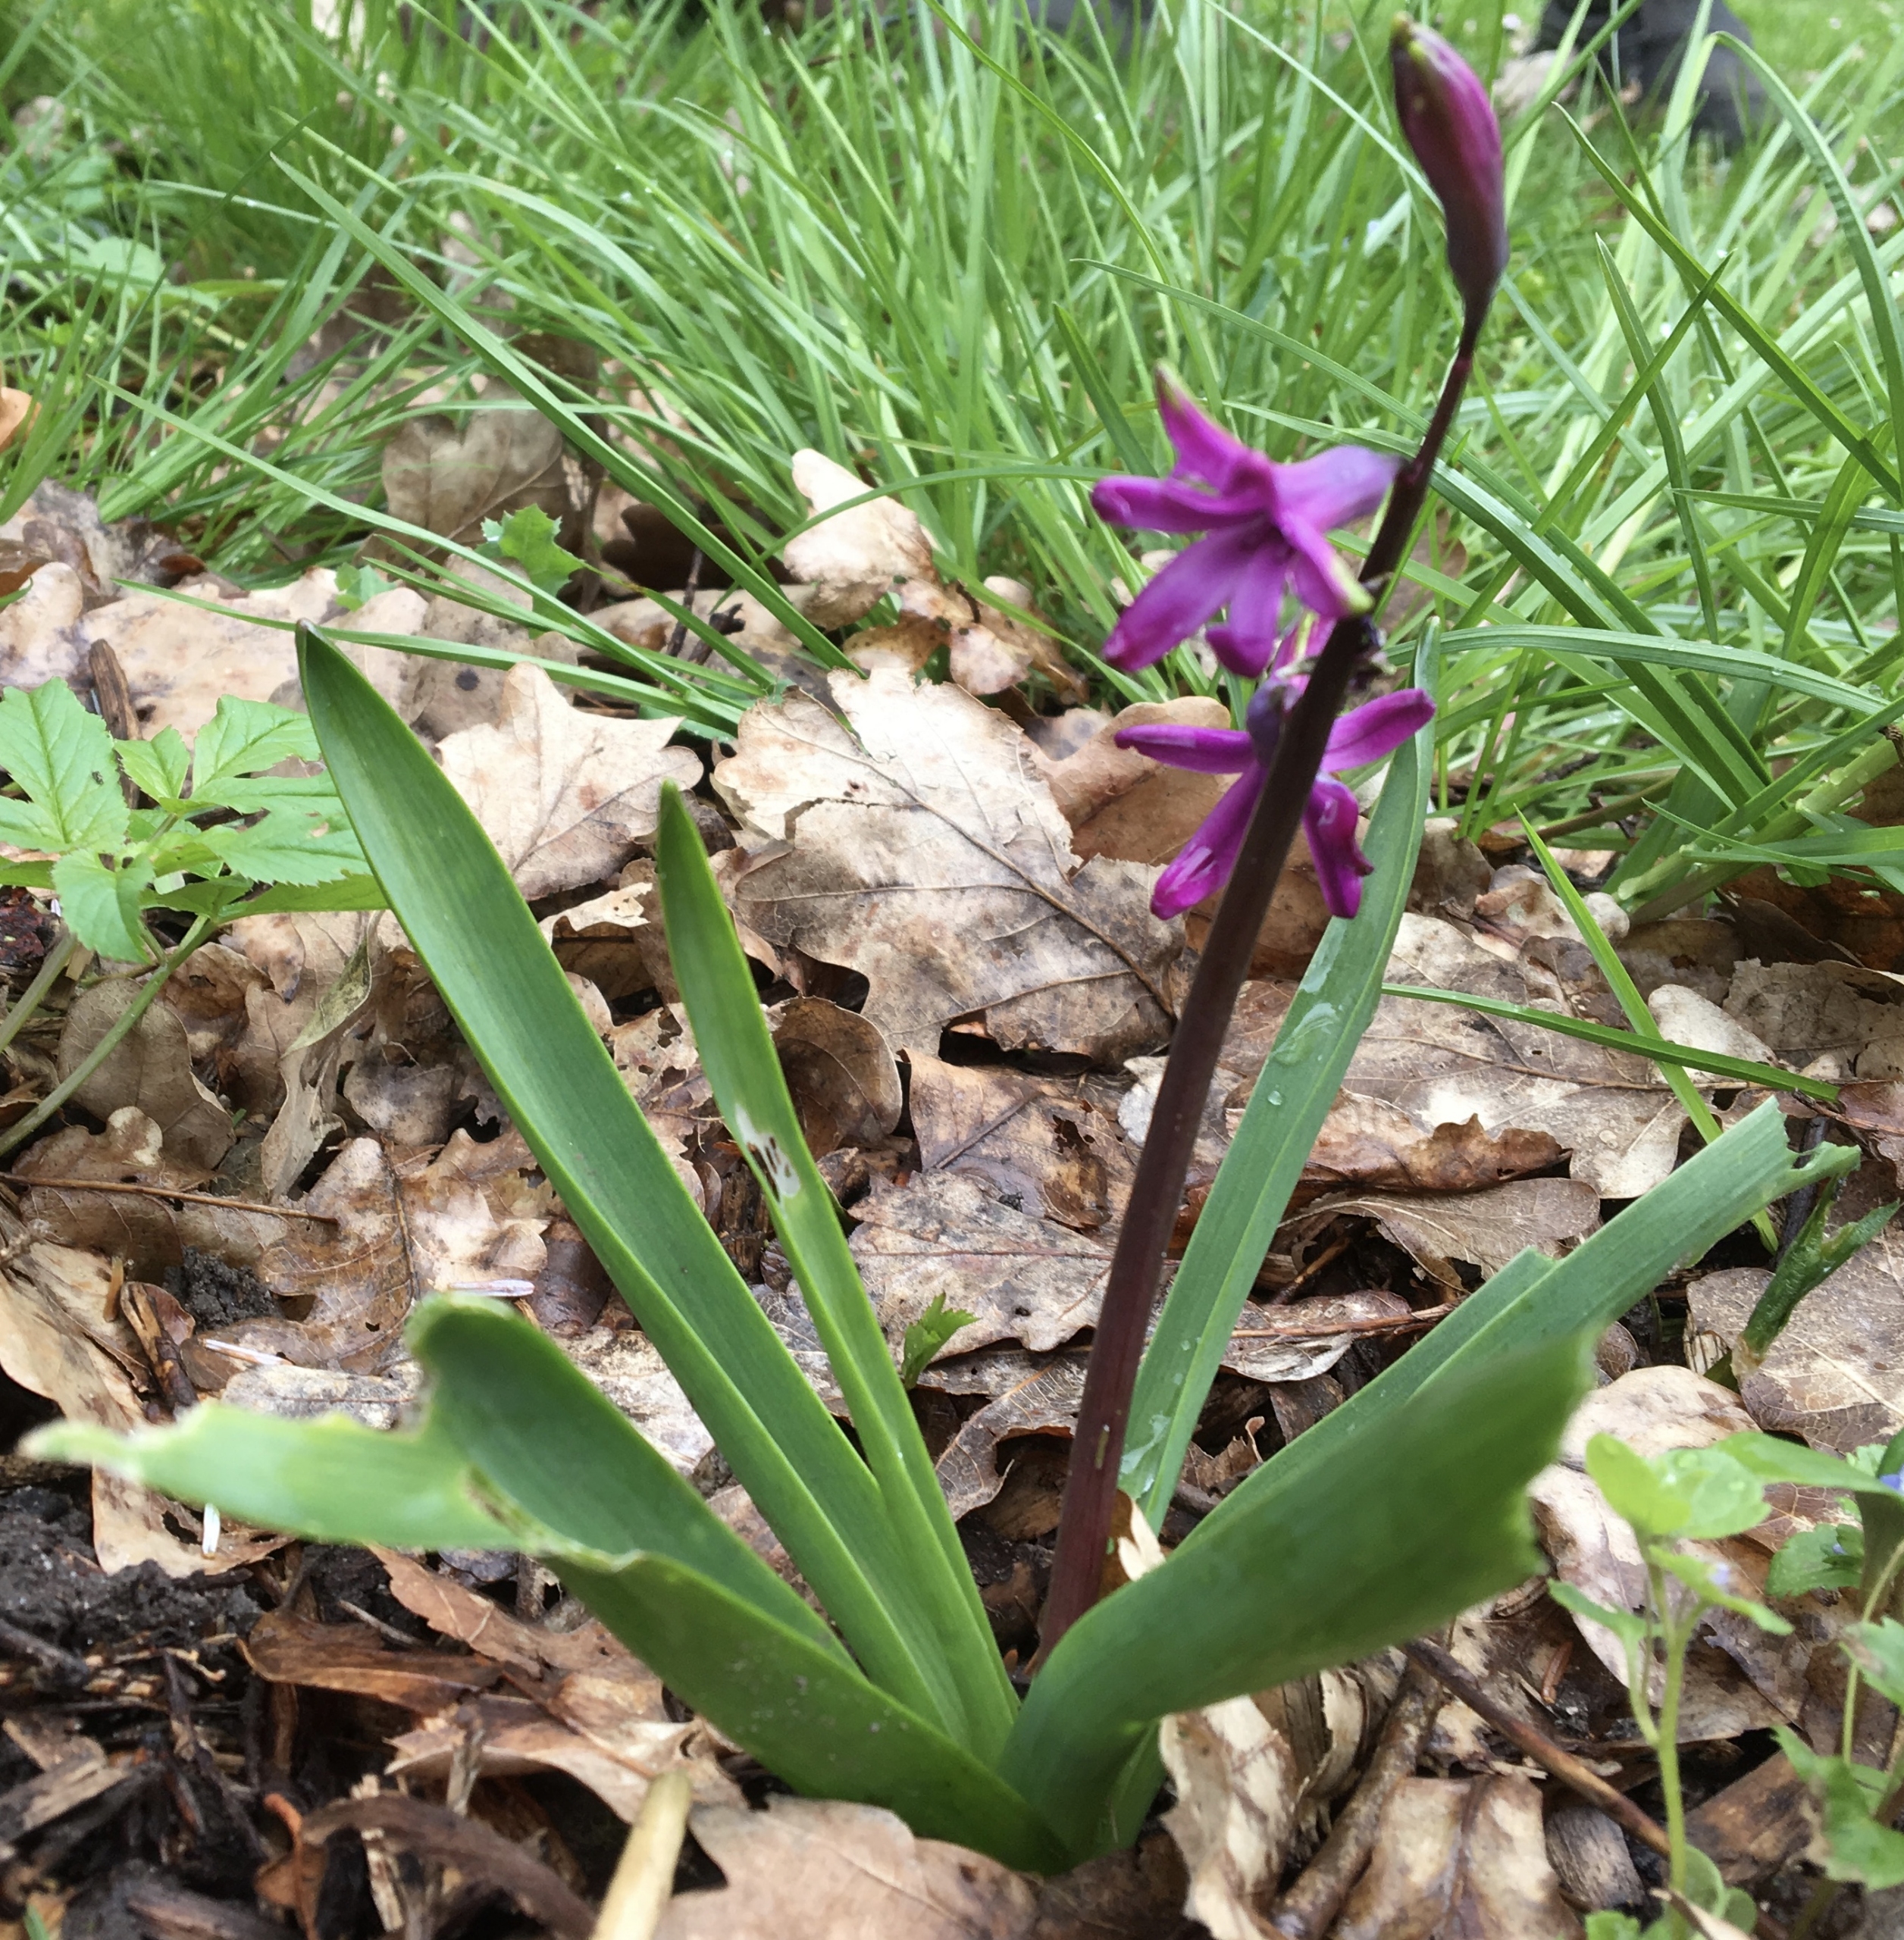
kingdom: Plantae
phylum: Tracheophyta
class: Liliopsida
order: Asparagales
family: Asparagaceae
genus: Hyacinthoides
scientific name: Hyacinthoides massartiana
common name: Hybrid-klokkeskilla
